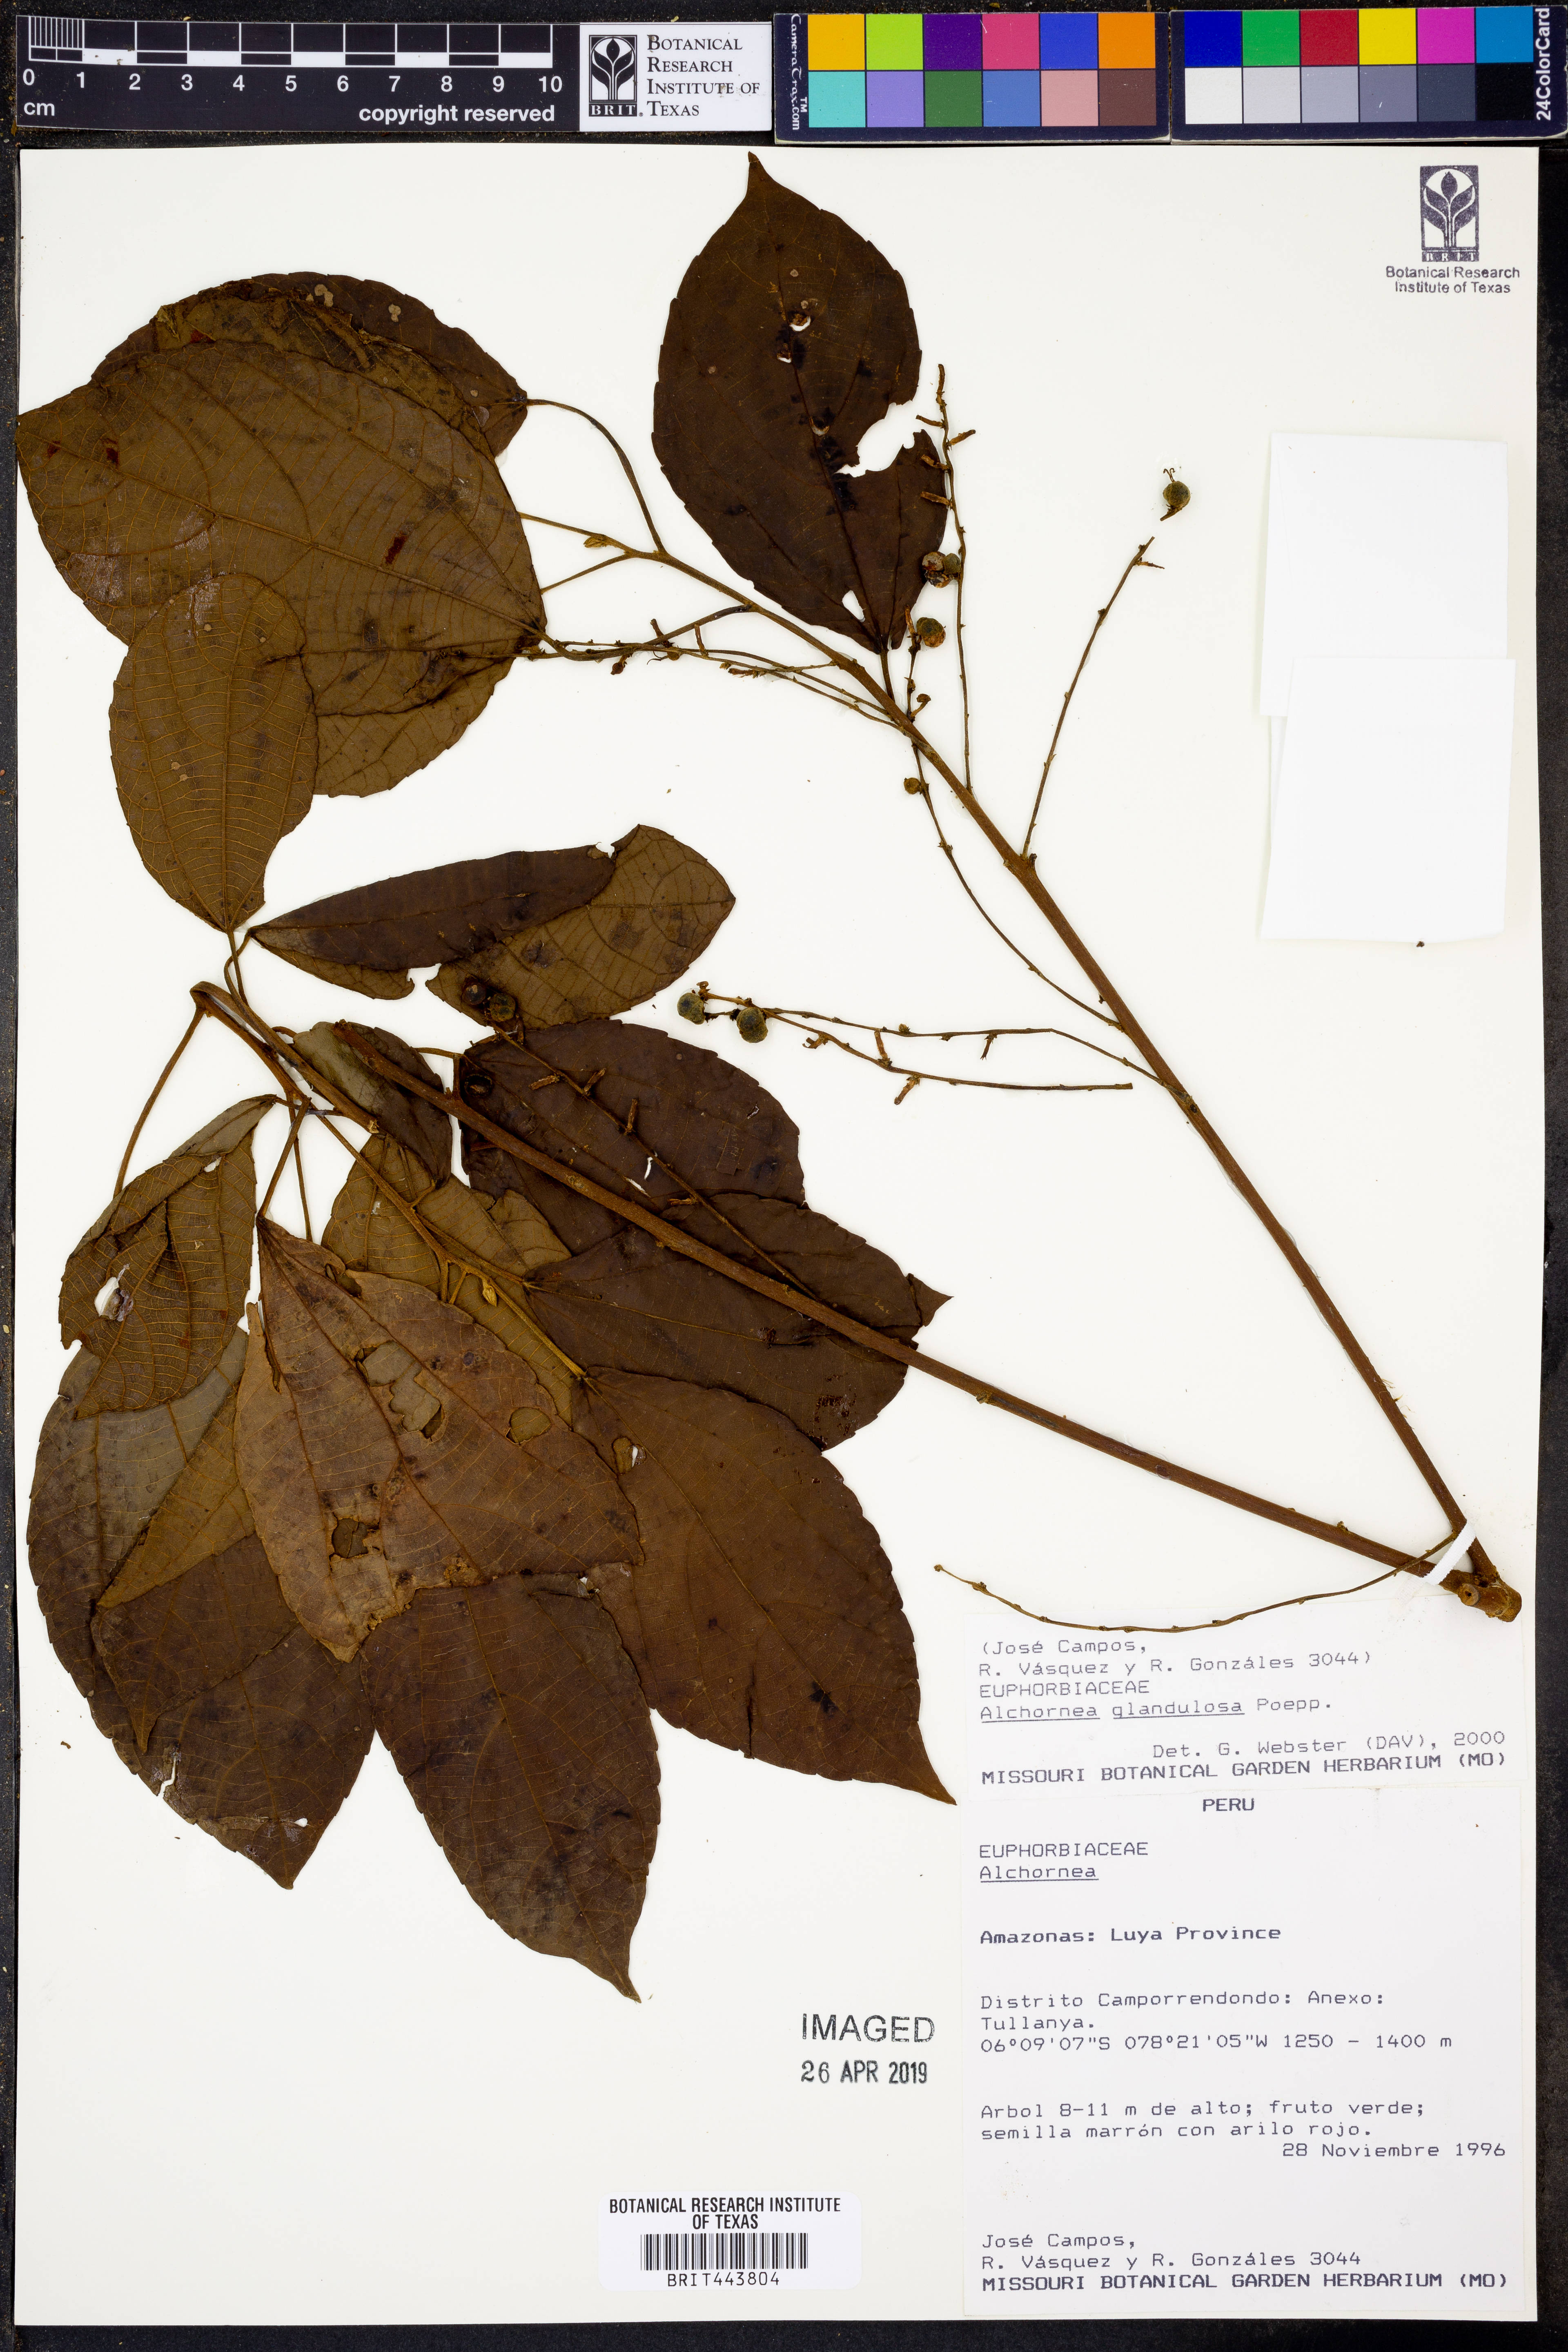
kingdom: Plantae
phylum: Tracheophyta
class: Magnoliopsida
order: Malpighiales
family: Euphorbiaceae
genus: Alchornea
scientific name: Alchornea glandulosa
